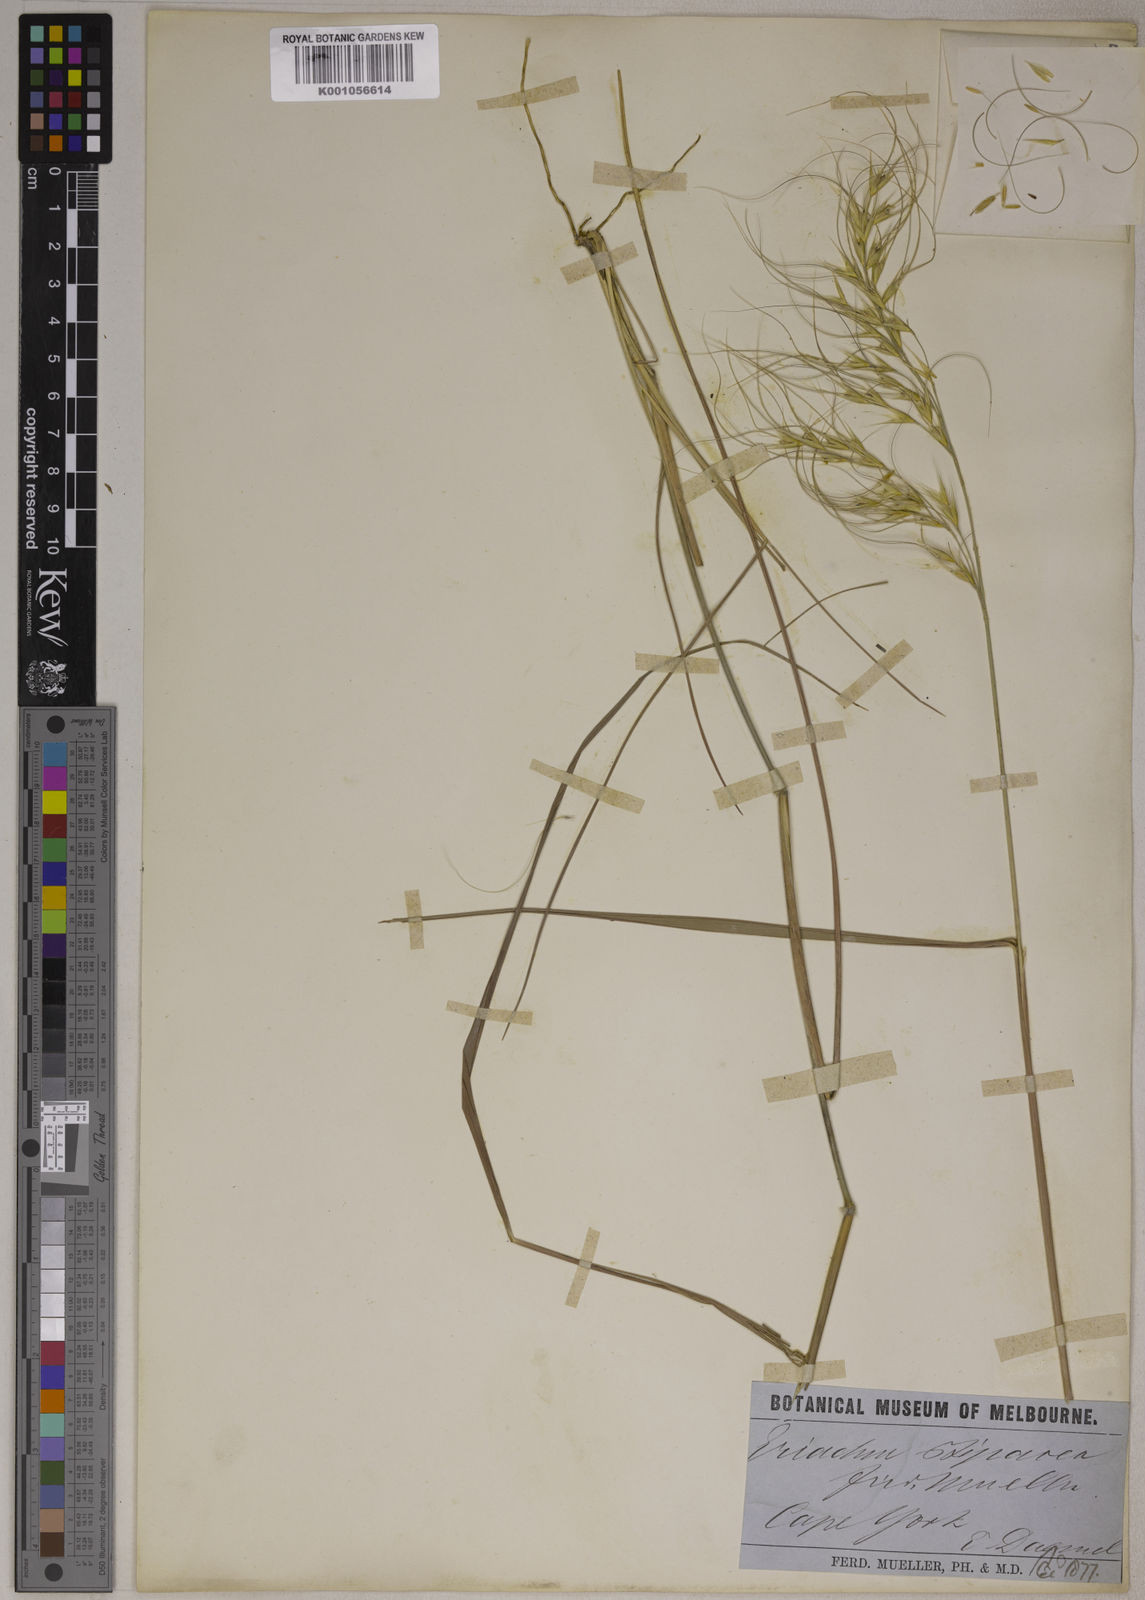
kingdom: Plantae
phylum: Tracheophyta
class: Liliopsida
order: Poales
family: Poaceae
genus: Eriachne
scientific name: Eriachne stipacea
